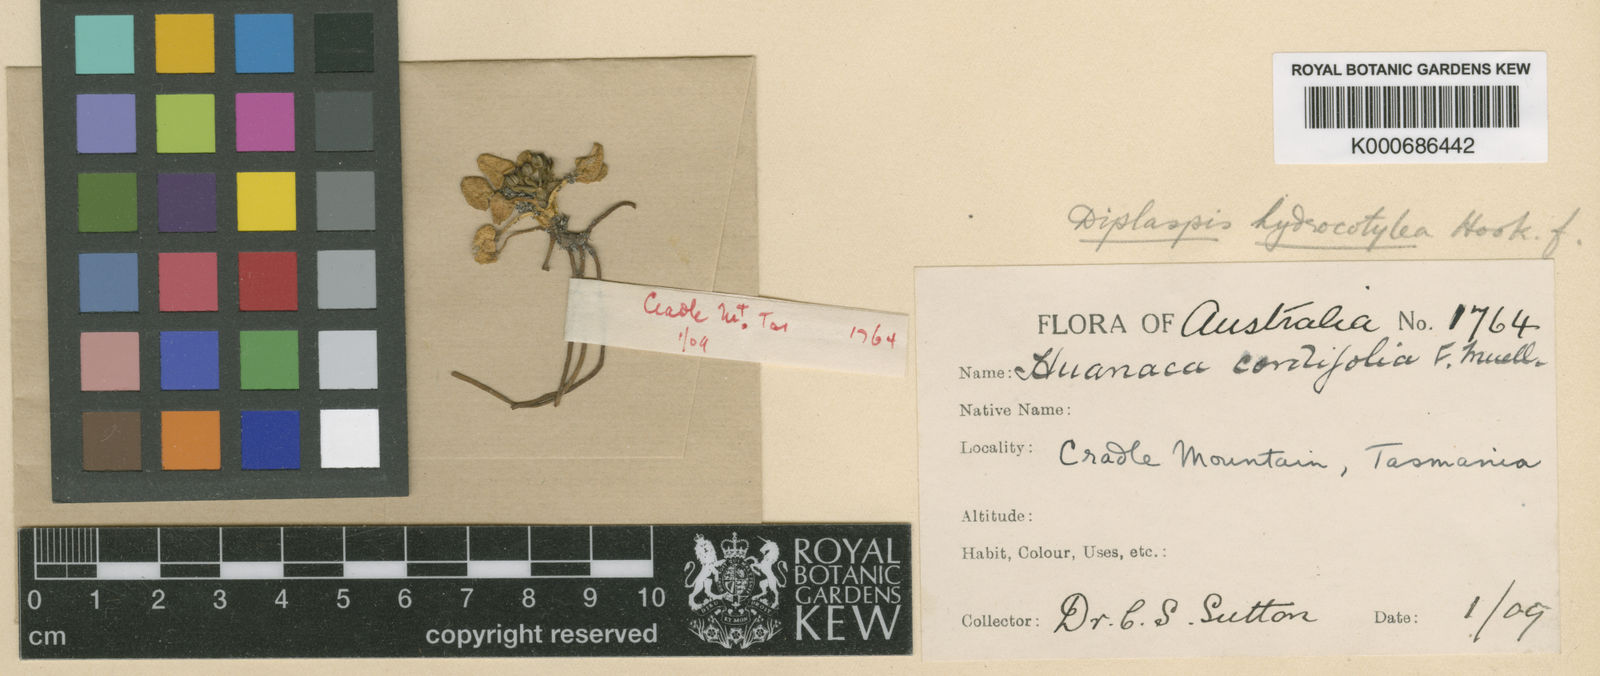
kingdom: Plantae
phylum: Tracheophyta
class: Magnoliopsida
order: Apiales
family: Apiaceae
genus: Diplaspis
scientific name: Diplaspis
